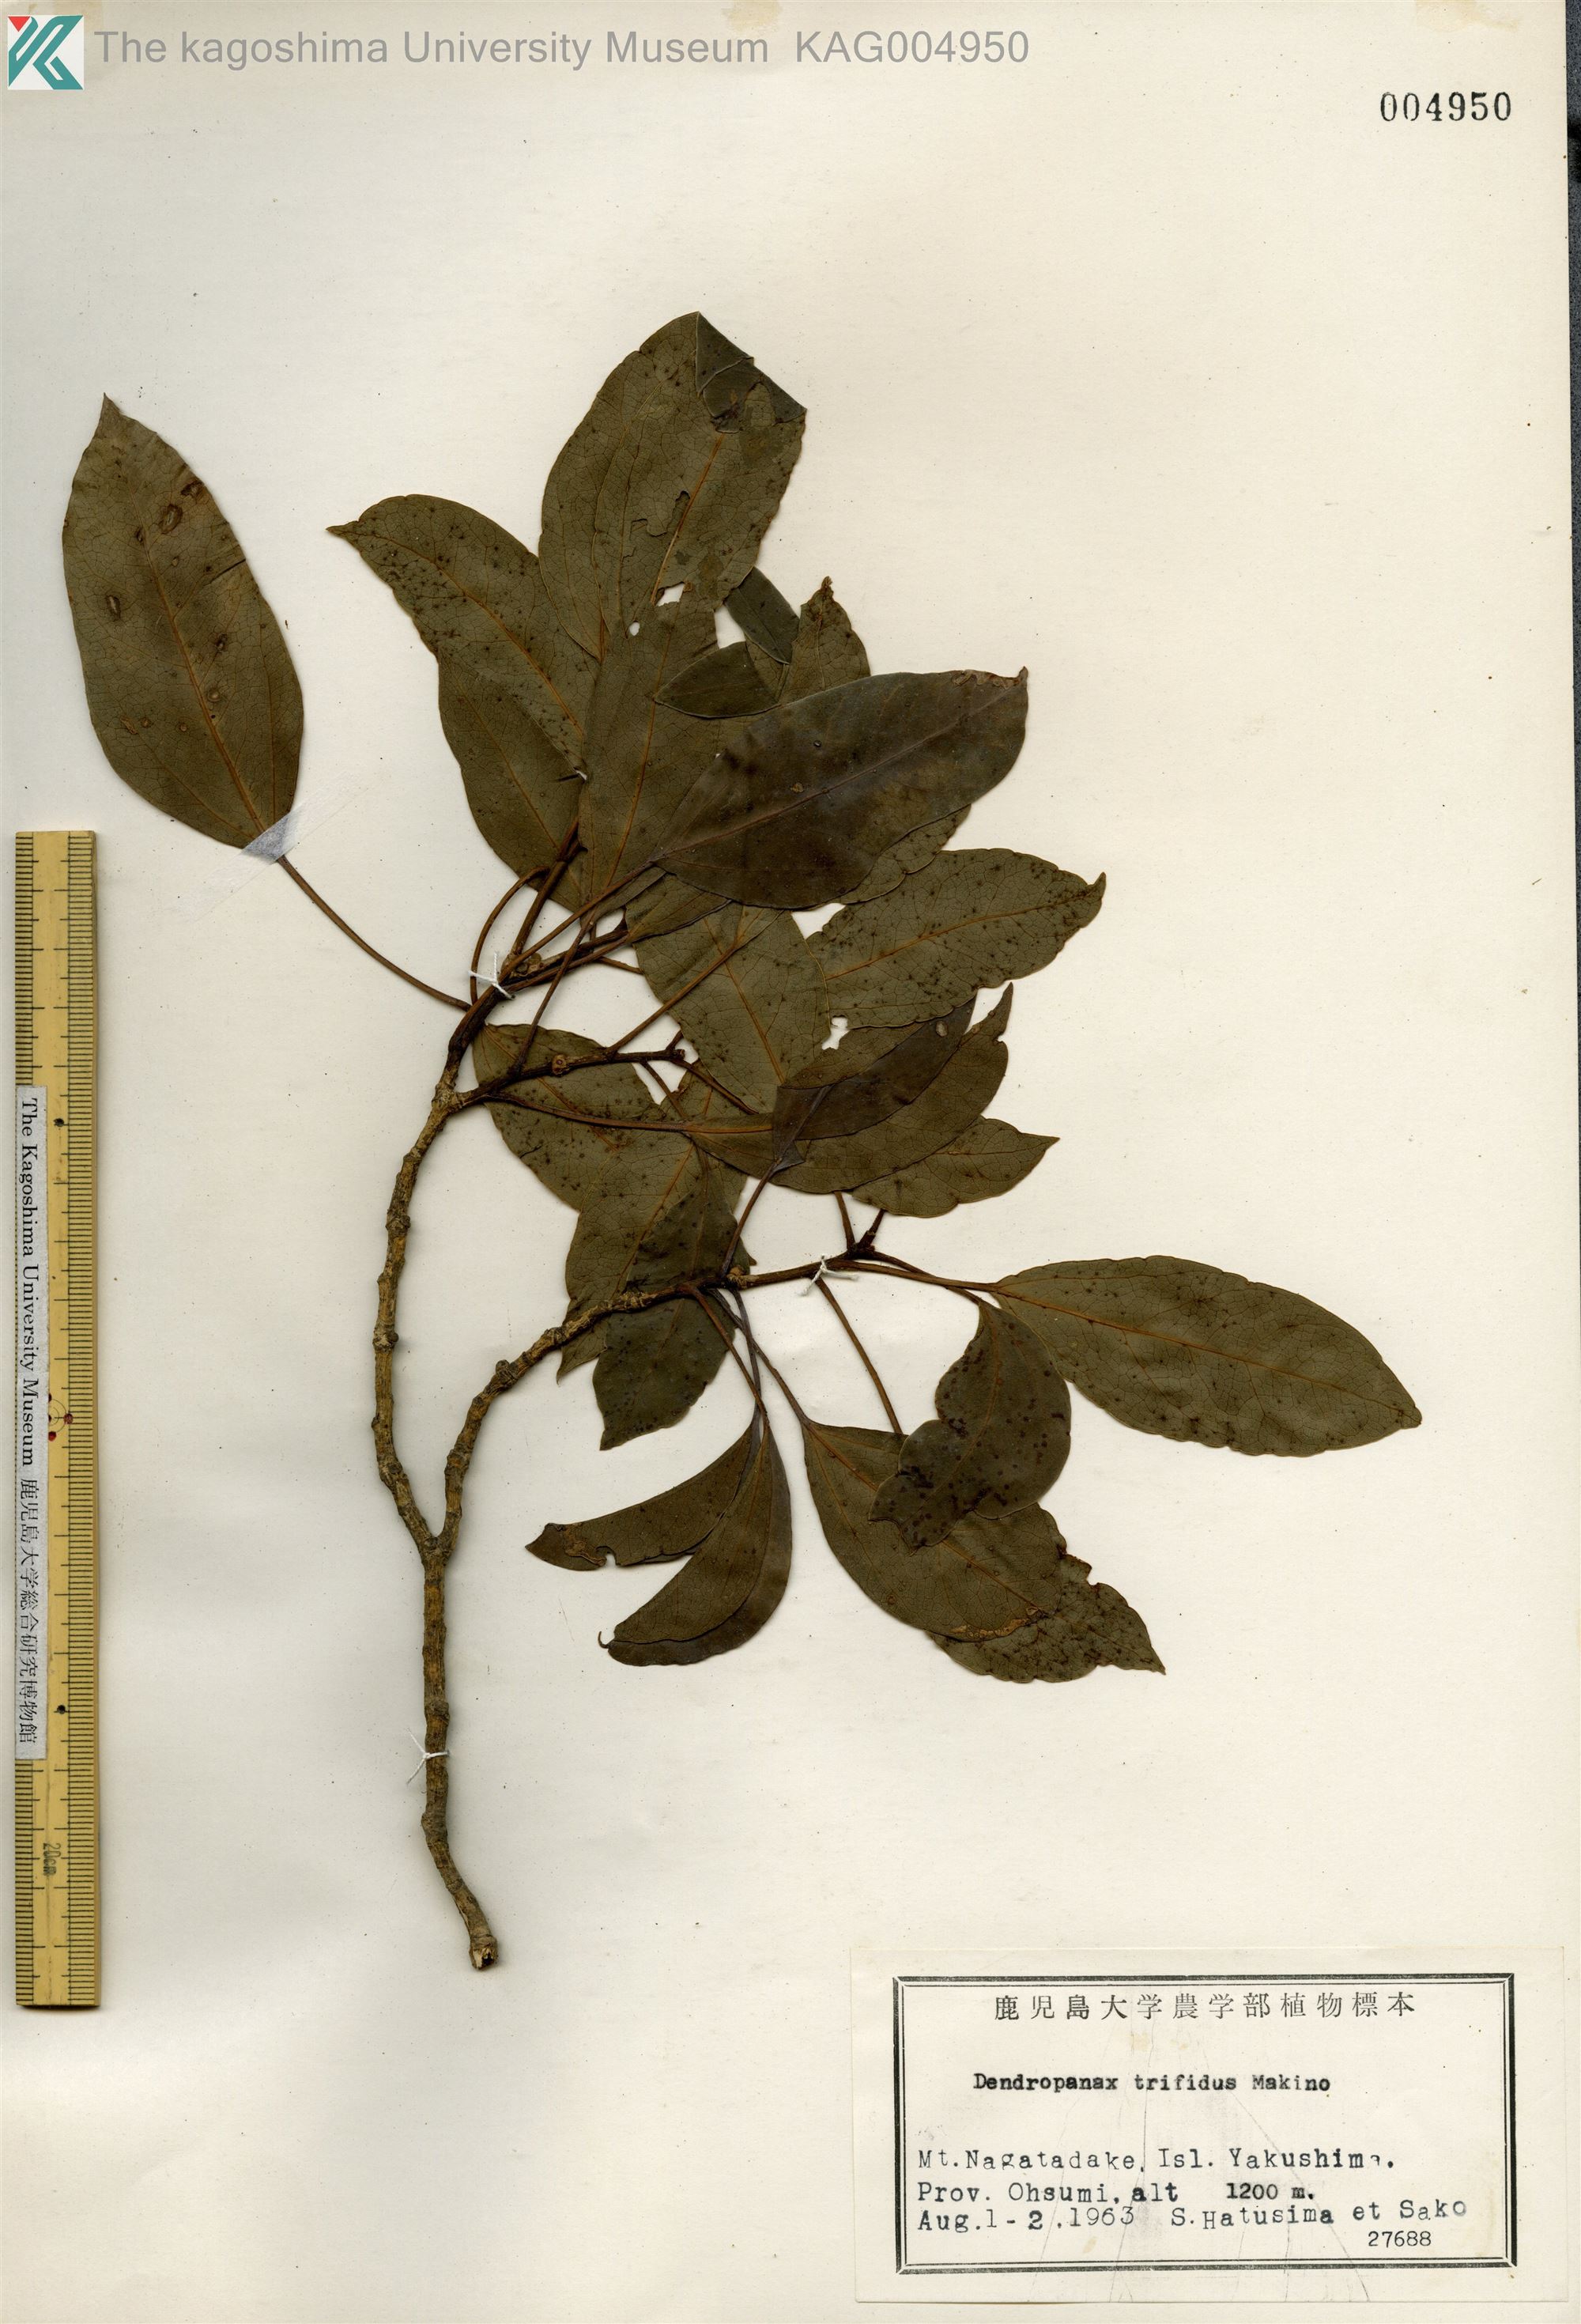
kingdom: Plantae
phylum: Tracheophyta
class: Magnoliopsida
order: Apiales
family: Araliaceae
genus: Dendropanax
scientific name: Dendropanax trifidus
